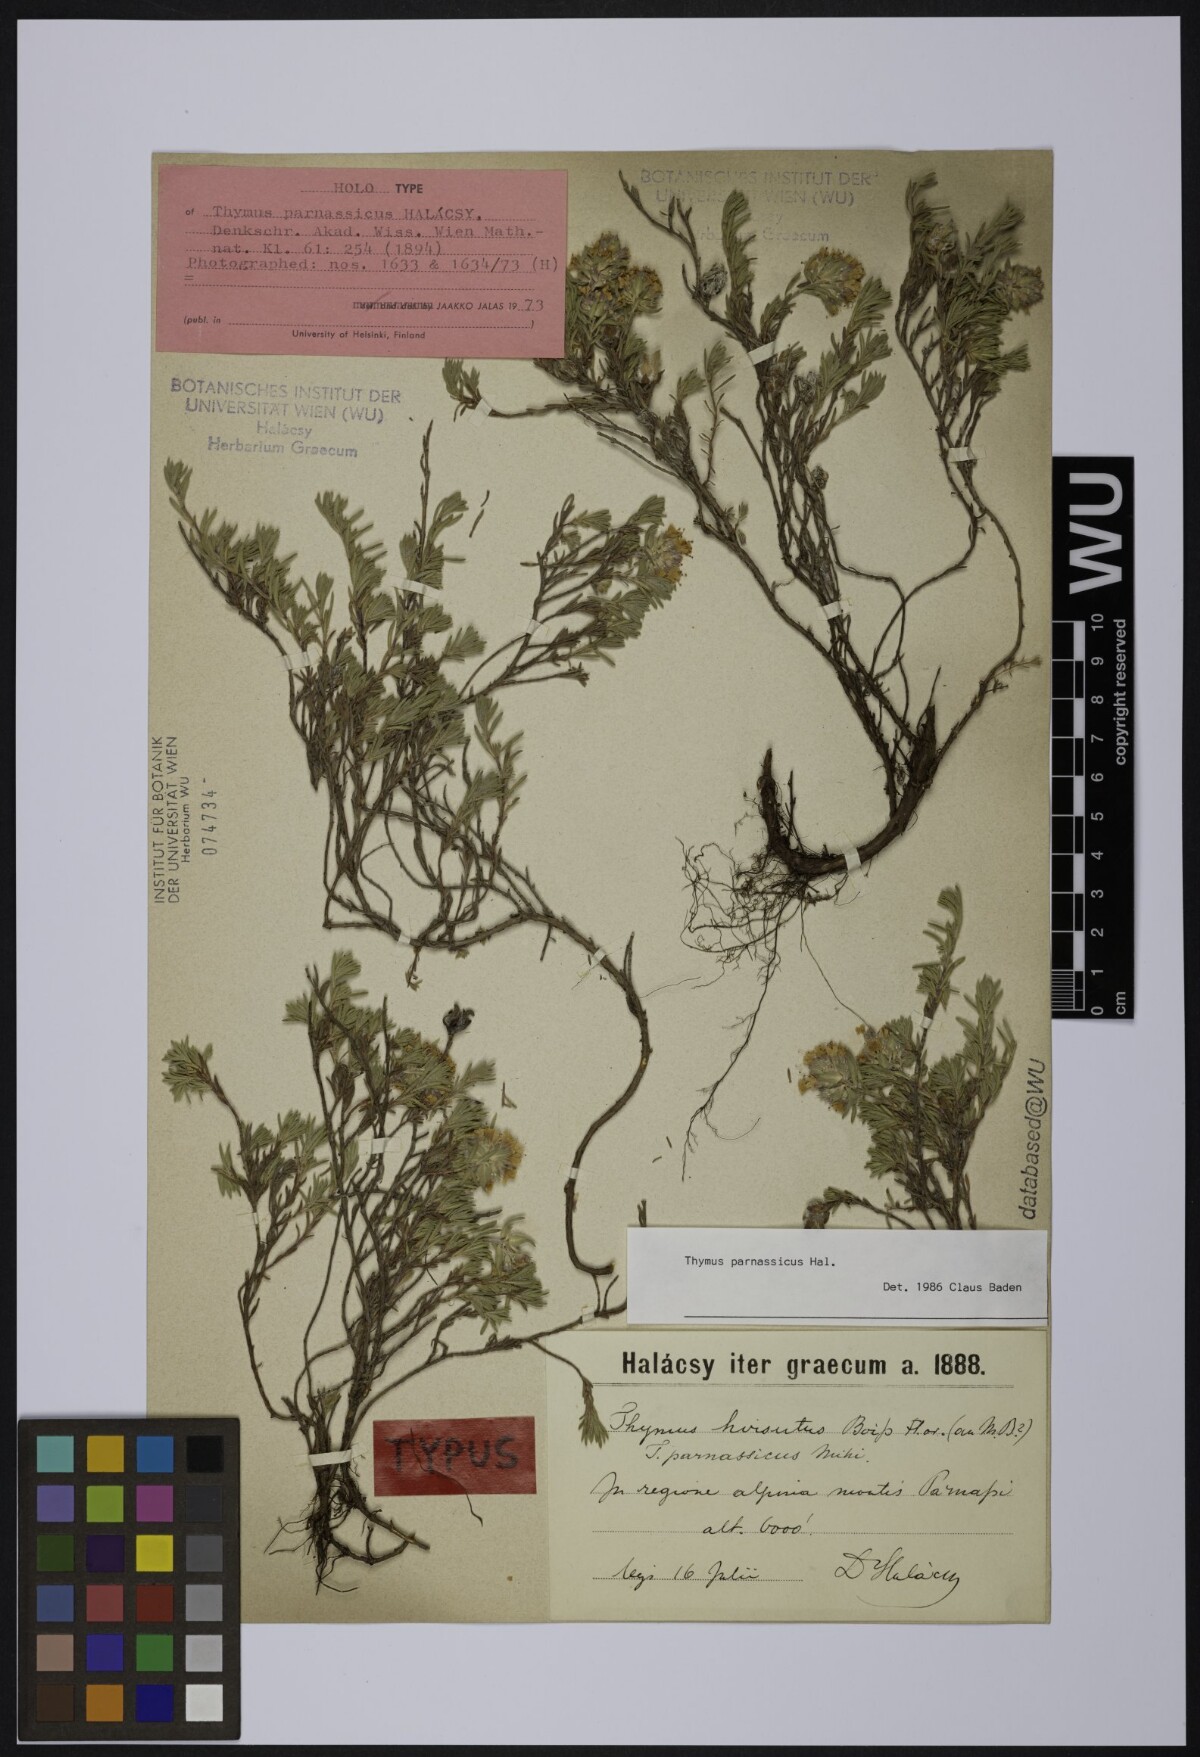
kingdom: Plantae
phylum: Tracheophyta
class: Magnoliopsida
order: Lamiales
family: Lamiaceae
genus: Thymus
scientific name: Thymus parnassicus
